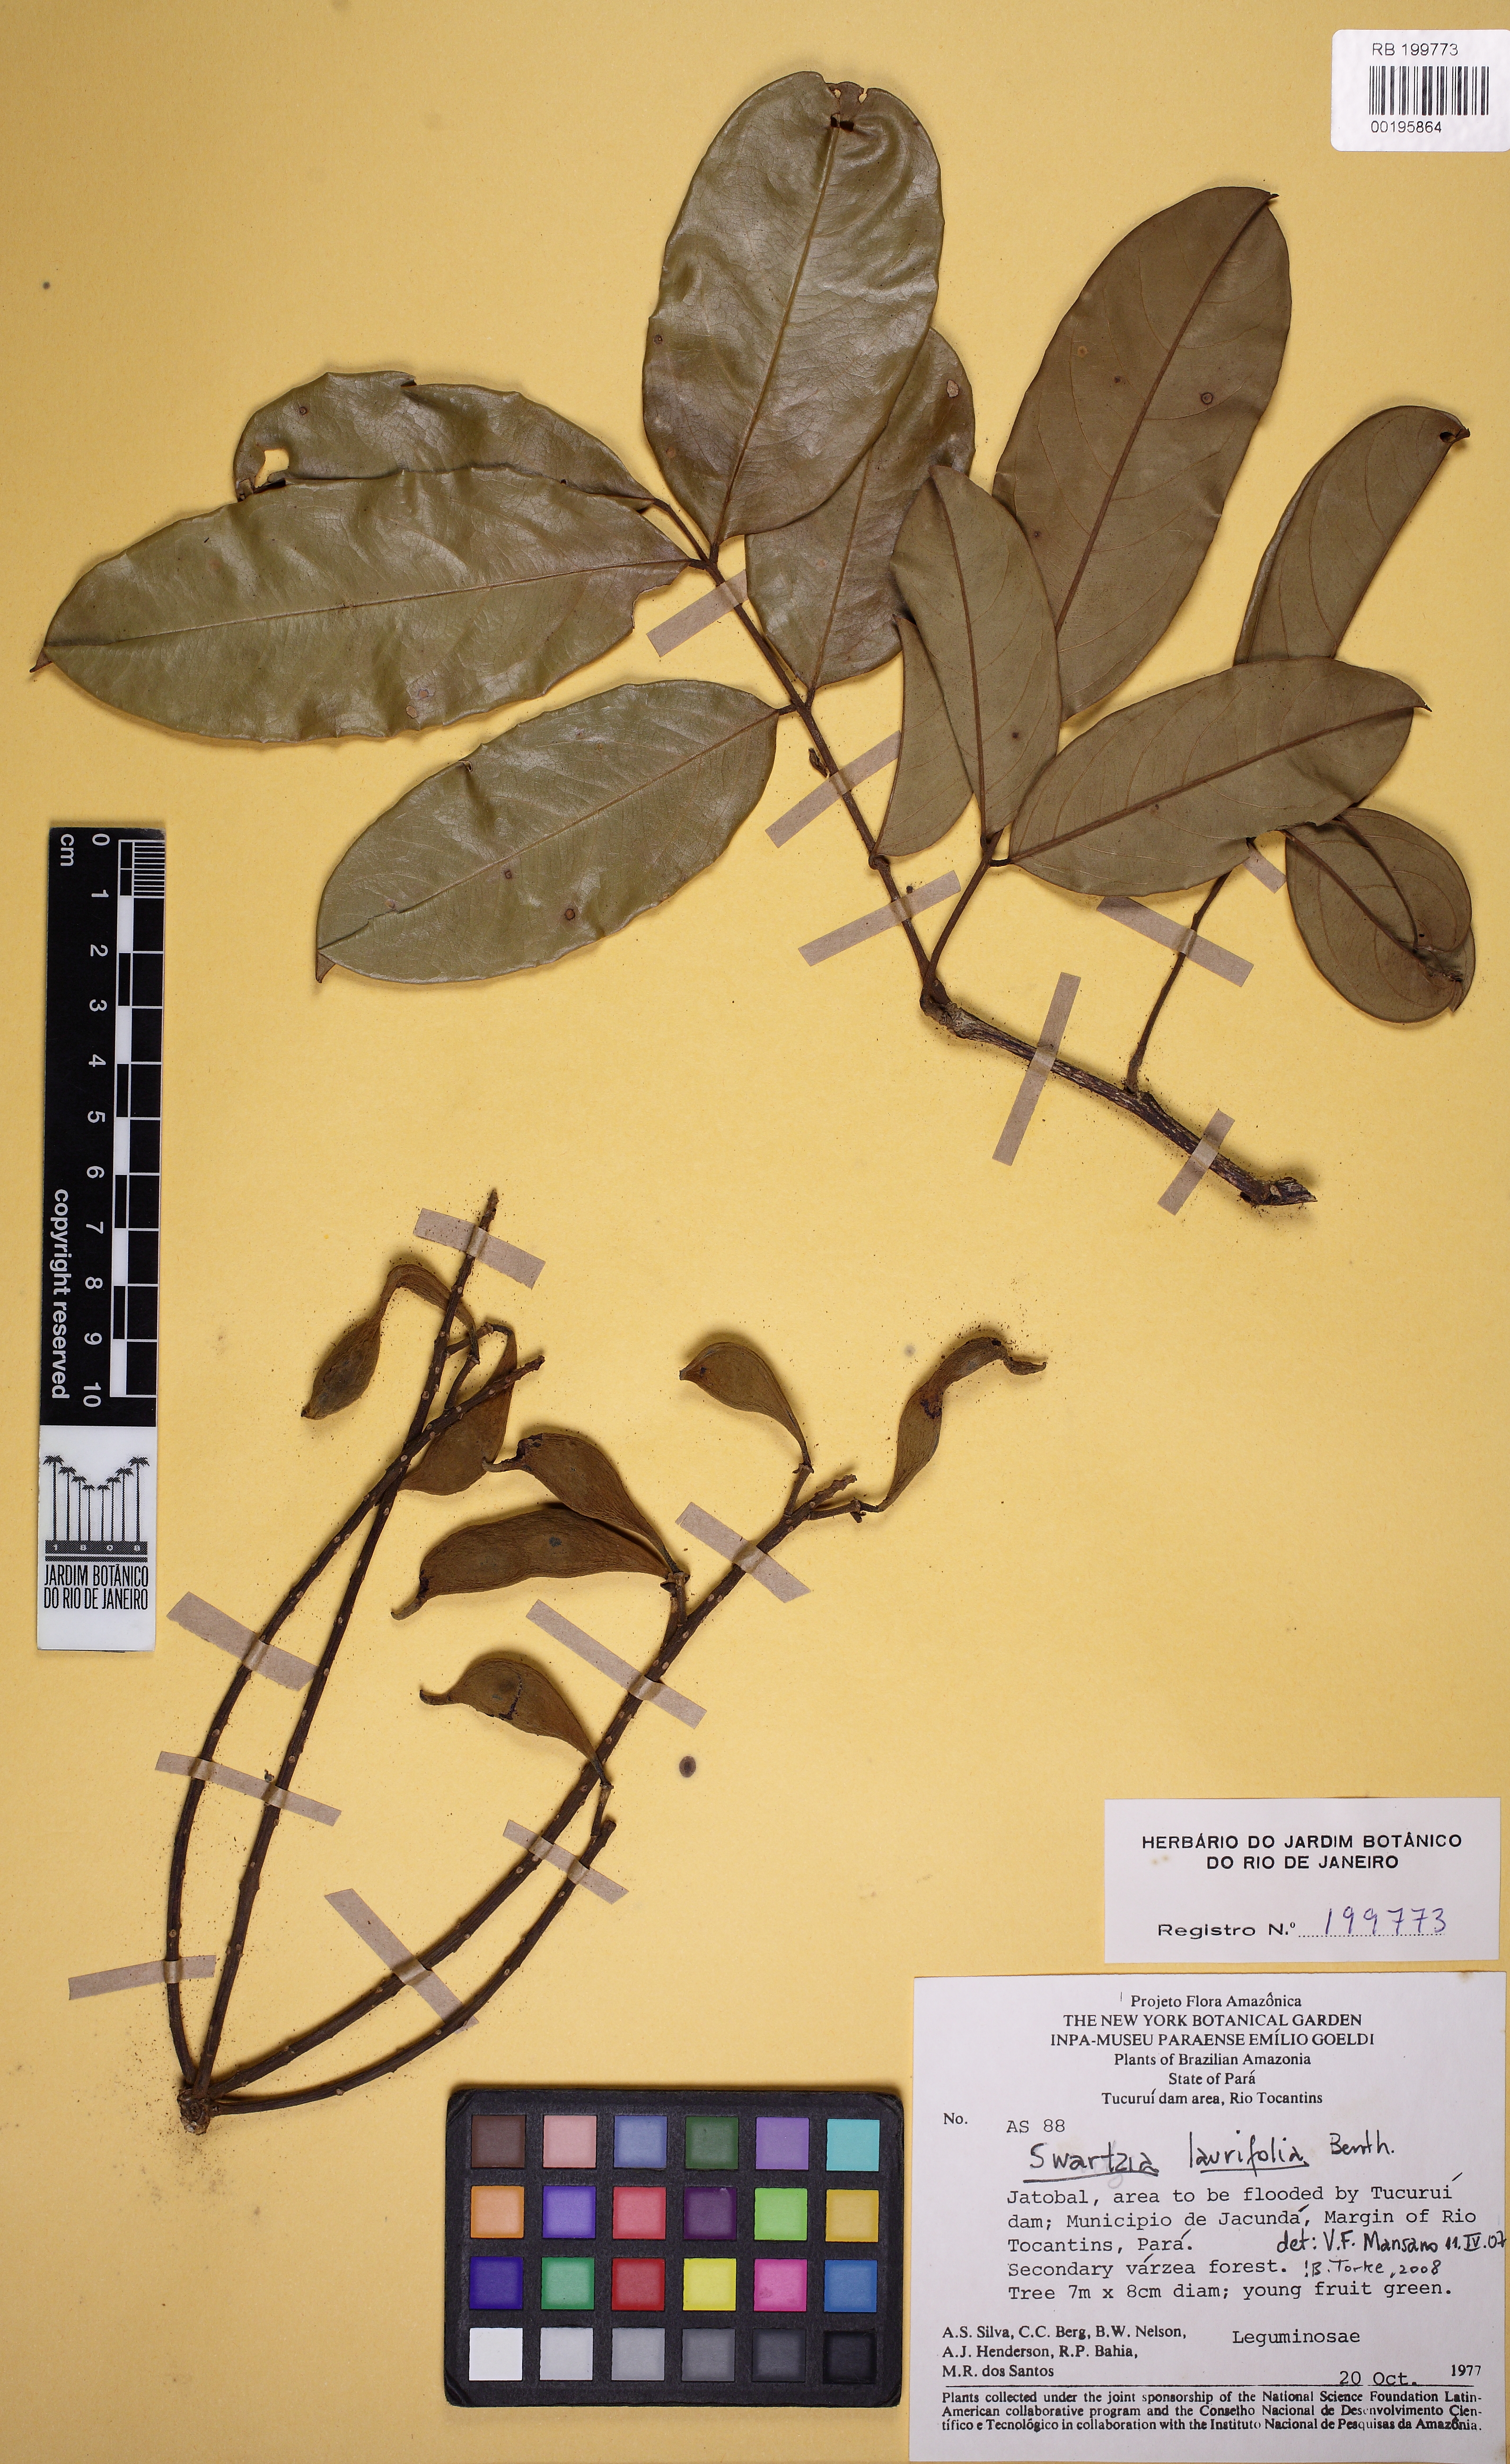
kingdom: Plantae
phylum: Tracheophyta
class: Magnoliopsida
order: Fabales
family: Fabaceae
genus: Swartzia
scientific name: Swartzia laurifolia
